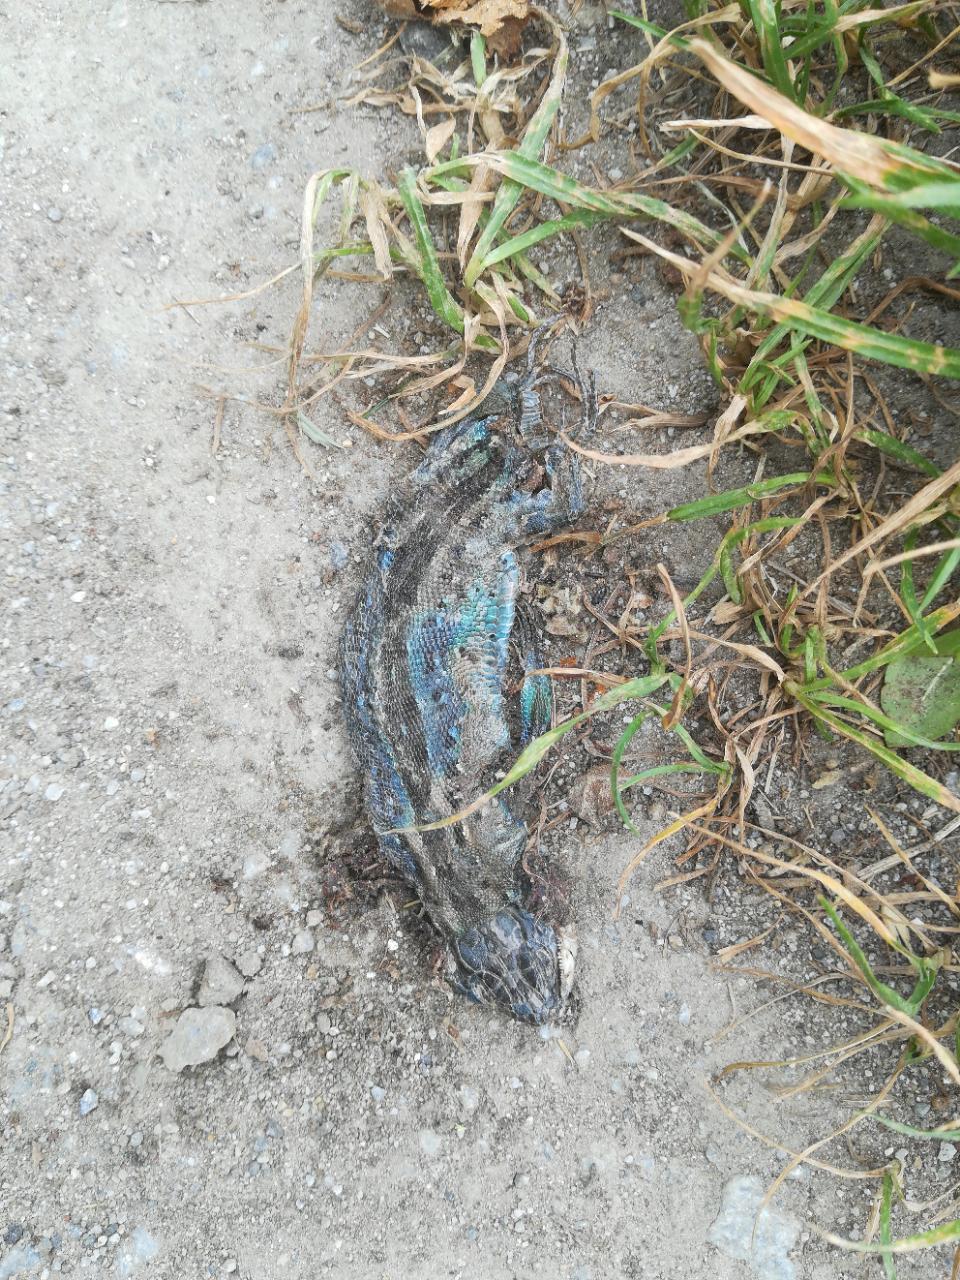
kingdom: Animalia
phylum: Chordata
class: Squamata
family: Lacertidae
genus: Lacerta
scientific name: Lacerta agilis
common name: Sand lizard
